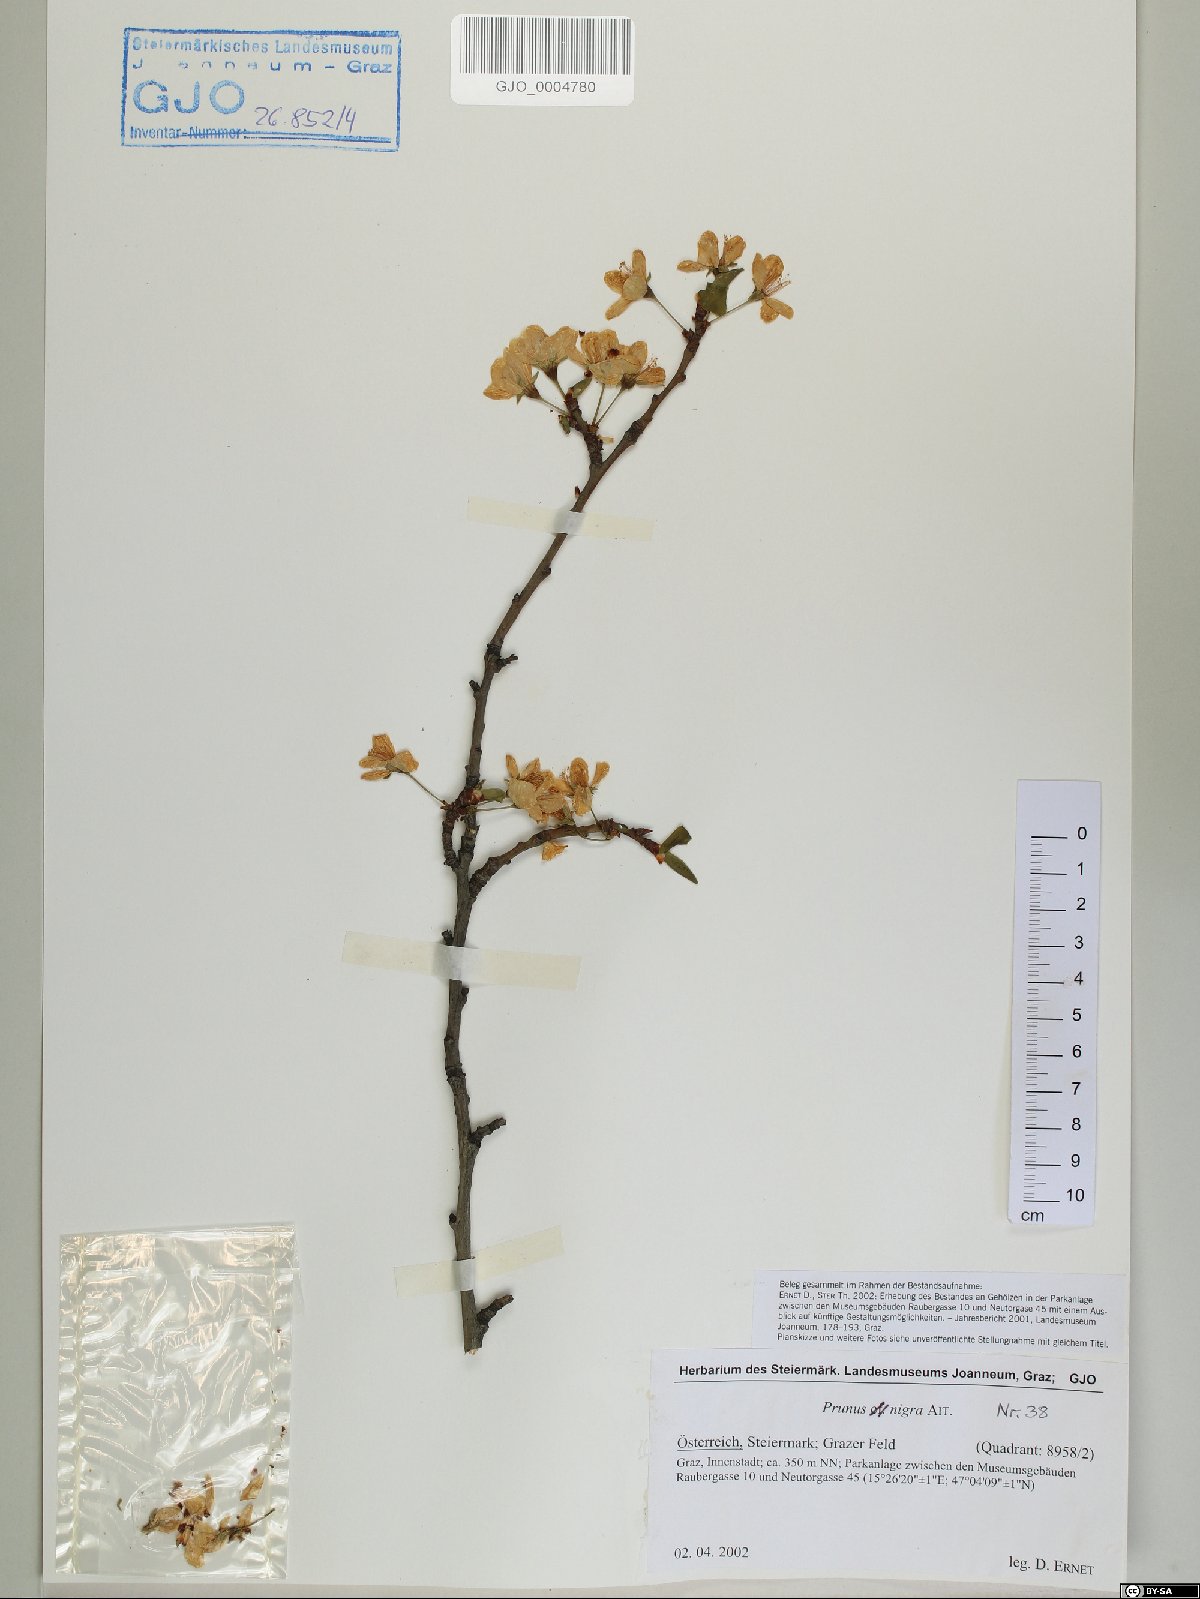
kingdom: Plantae
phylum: Tracheophyta
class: Magnoliopsida
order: Rosales
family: Rosaceae
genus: Prunus
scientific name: Prunus nigra
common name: Black plum
